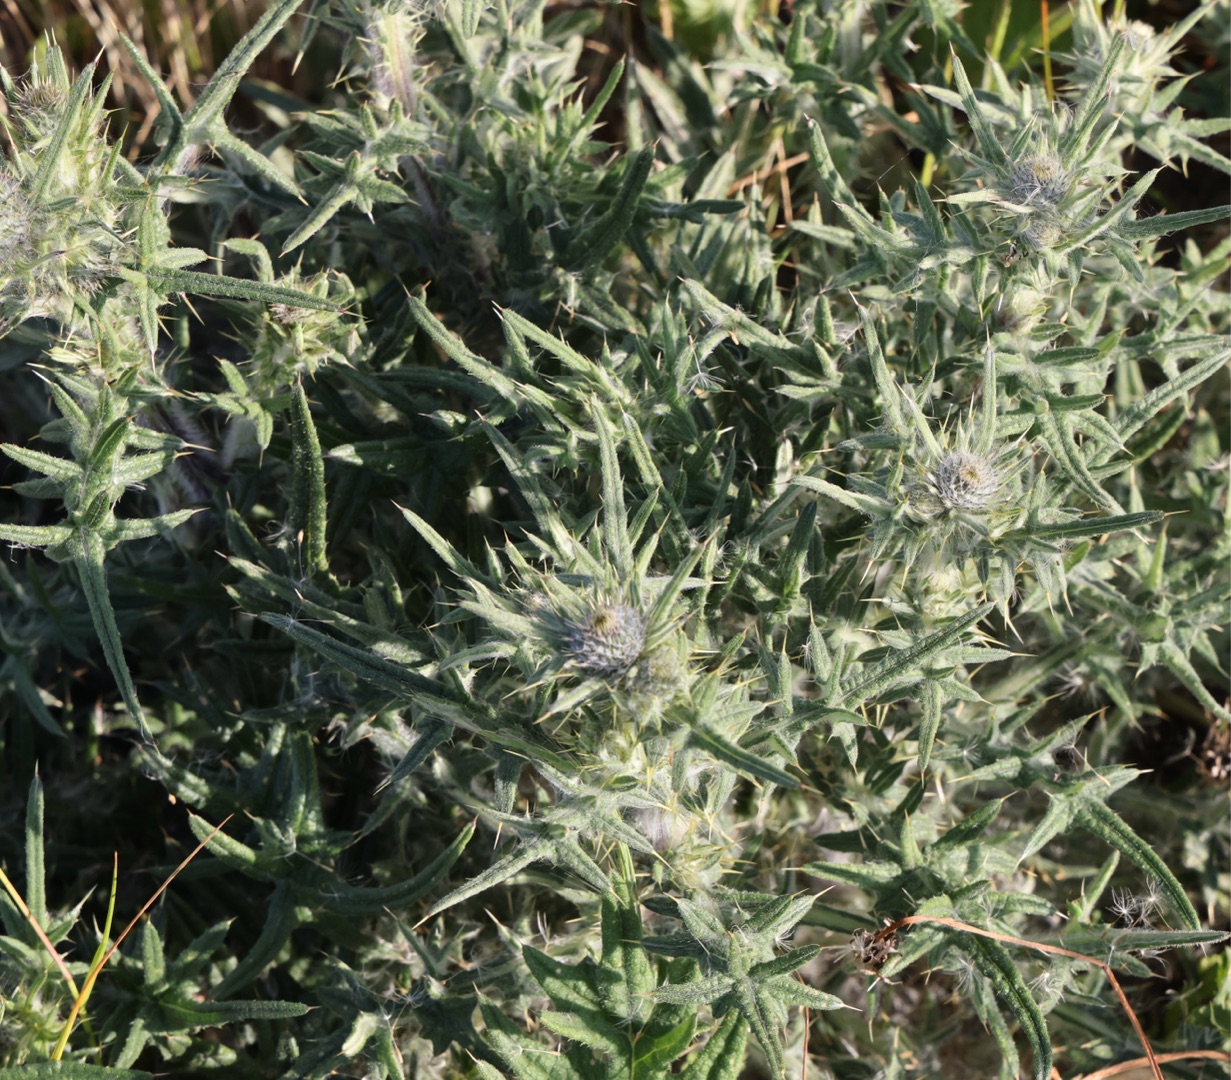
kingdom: Plantae
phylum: Tracheophyta
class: Magnoliopsida
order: Asterales
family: Asteraceae
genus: Cirsium
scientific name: Cirsium vulgare
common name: Horse-tidsel
